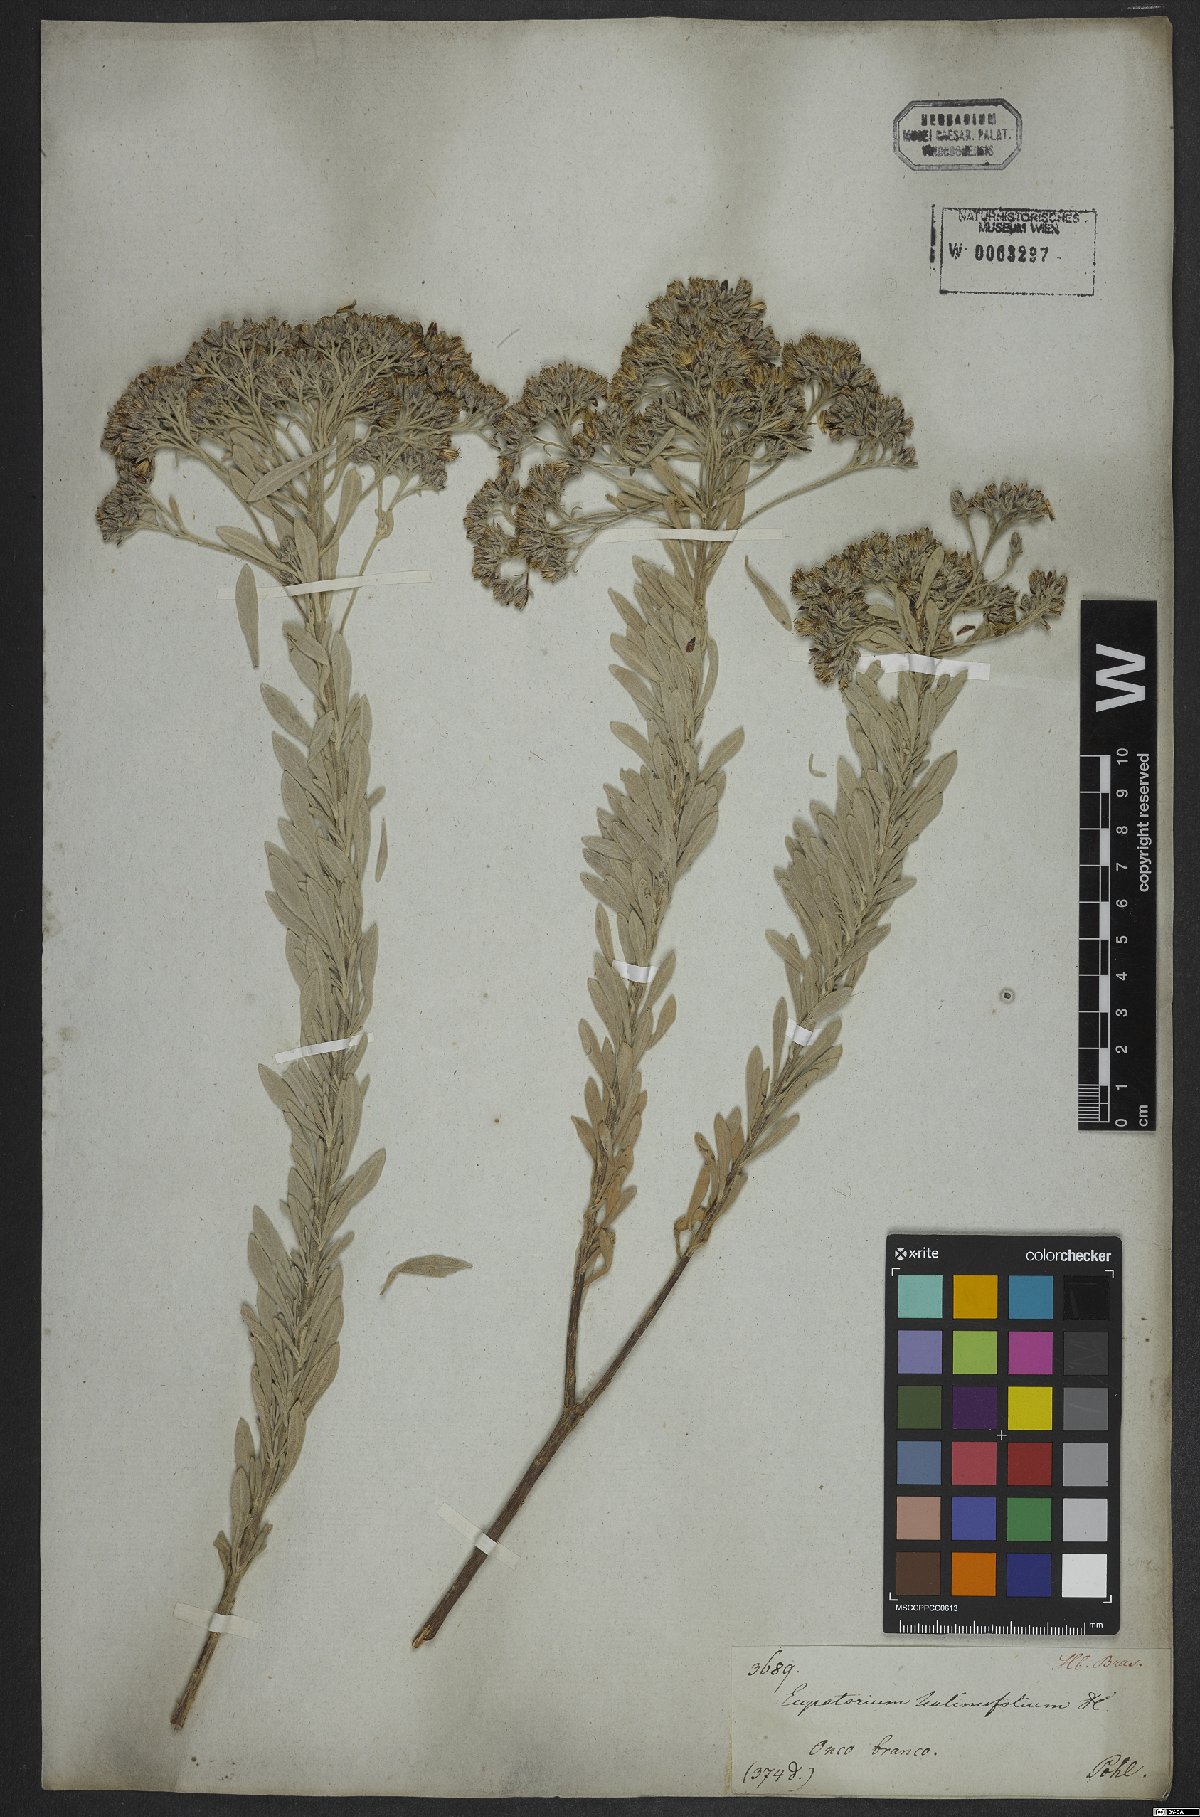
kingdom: Plantae
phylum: Tracheophyta
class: Magnoliopsida
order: Asterales
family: Asteraceae
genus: Disynaphia
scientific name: Disynaphia halimifolia
